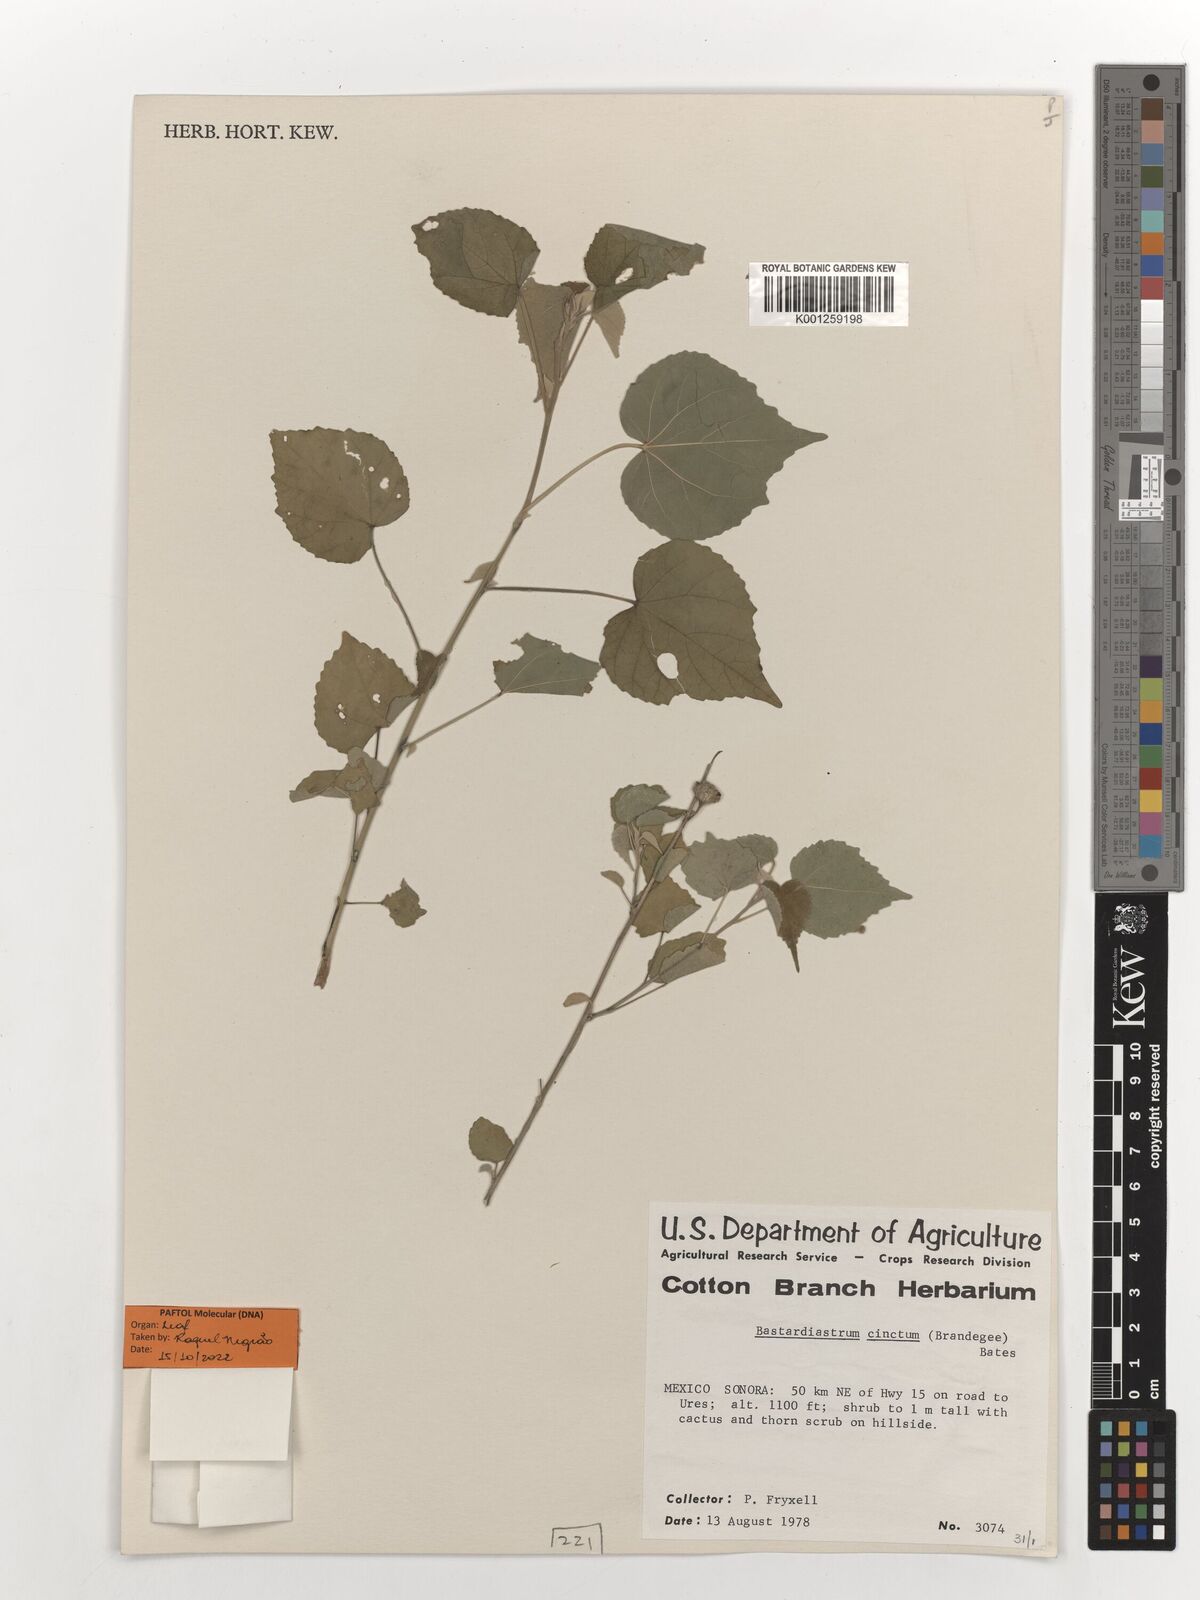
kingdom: Plantae
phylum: Tracheophyta
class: Magnoliopsida
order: Malvales
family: Malvaceae
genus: Bastardiastrum
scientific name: Bastardiastrum cinctum
